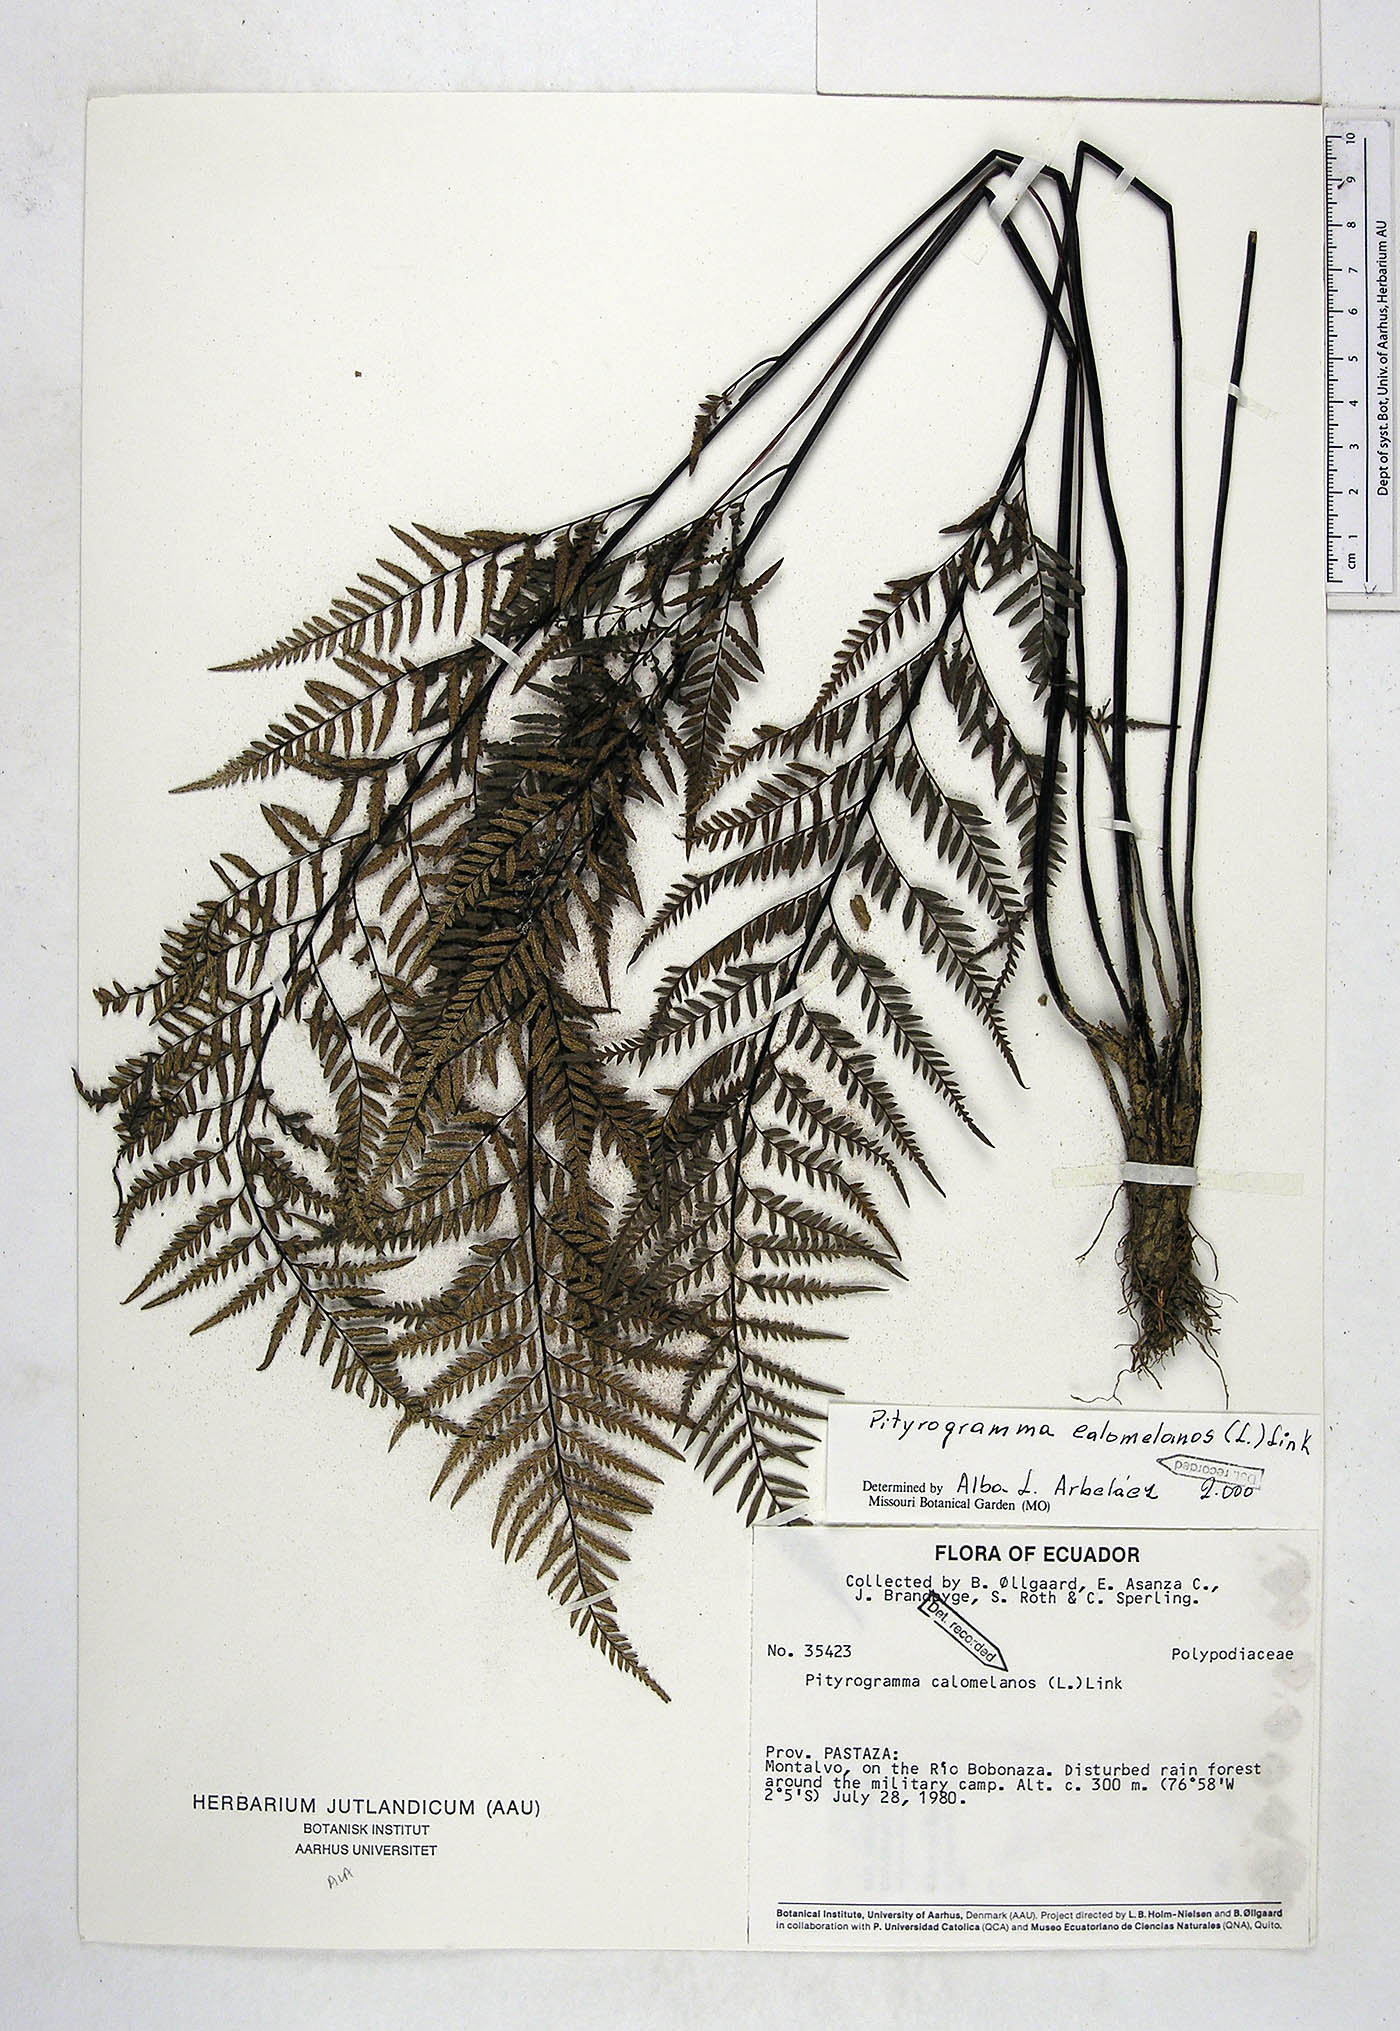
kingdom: Plantae
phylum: Tracheophyta
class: Polypodiopsida
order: Polypodiales
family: Pteridaceae
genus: Pityrogramma
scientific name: Pityrogramma calomelanos
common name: Dixie silverback fern
